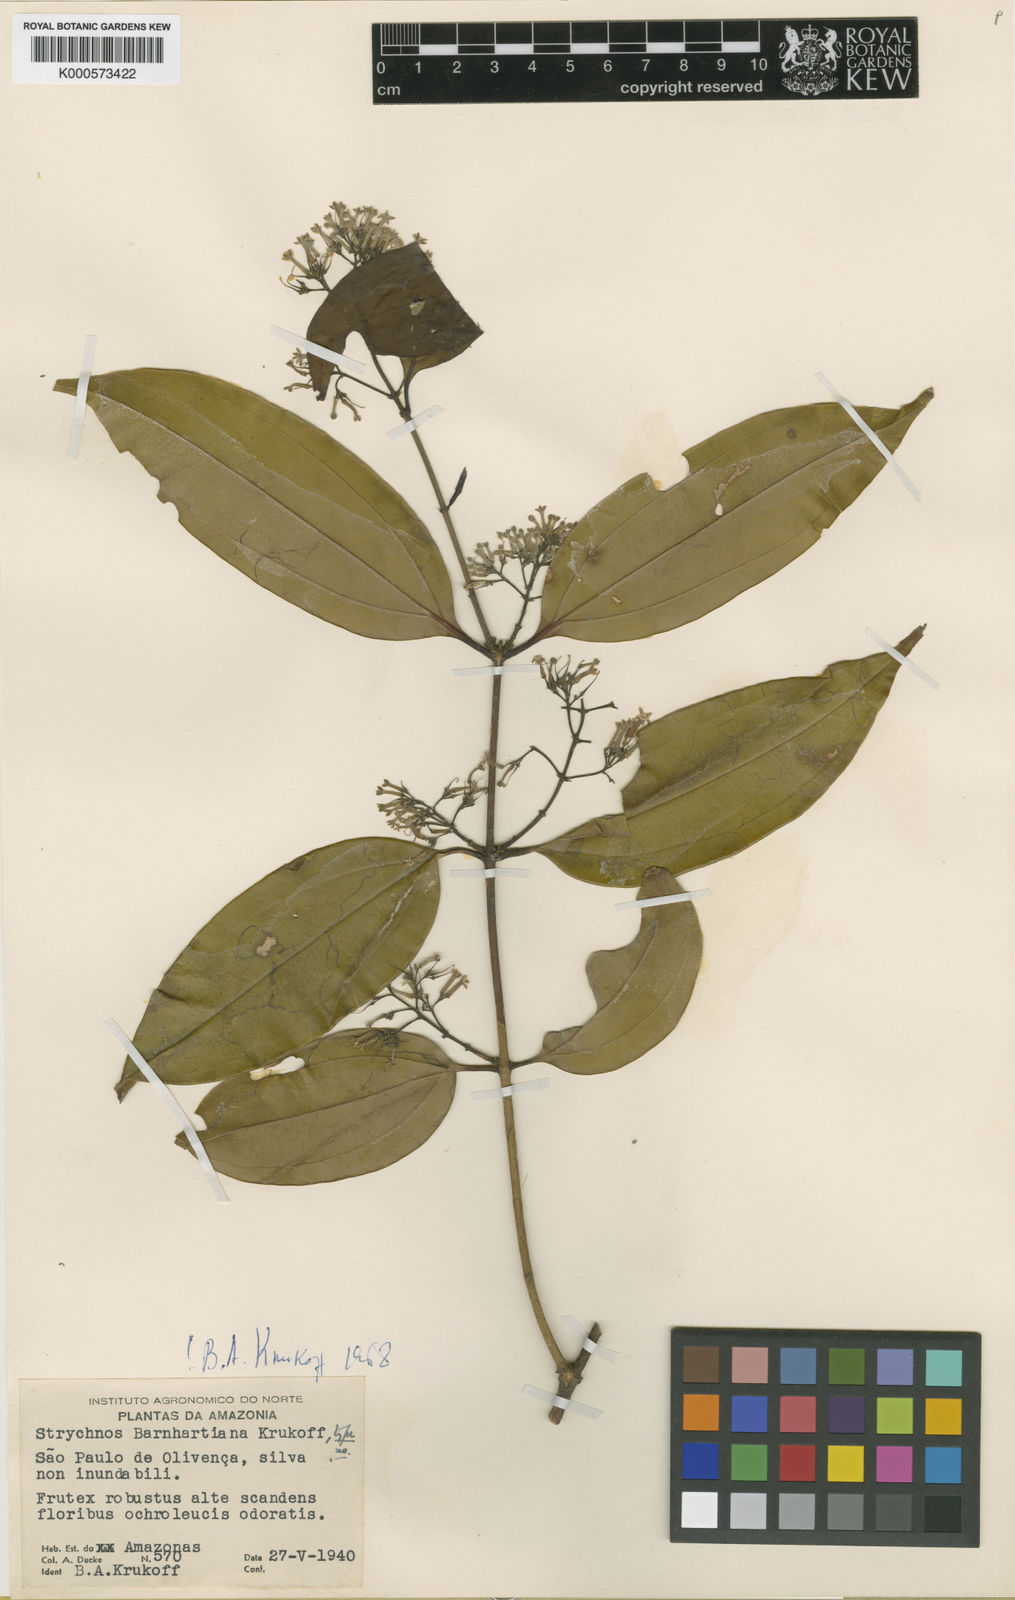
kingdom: Plantae
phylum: Tracheophyta
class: Magnoliopsida
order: Gentianales
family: Loganiaceae
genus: Strychnos
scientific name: Strychnos barnhartiana
